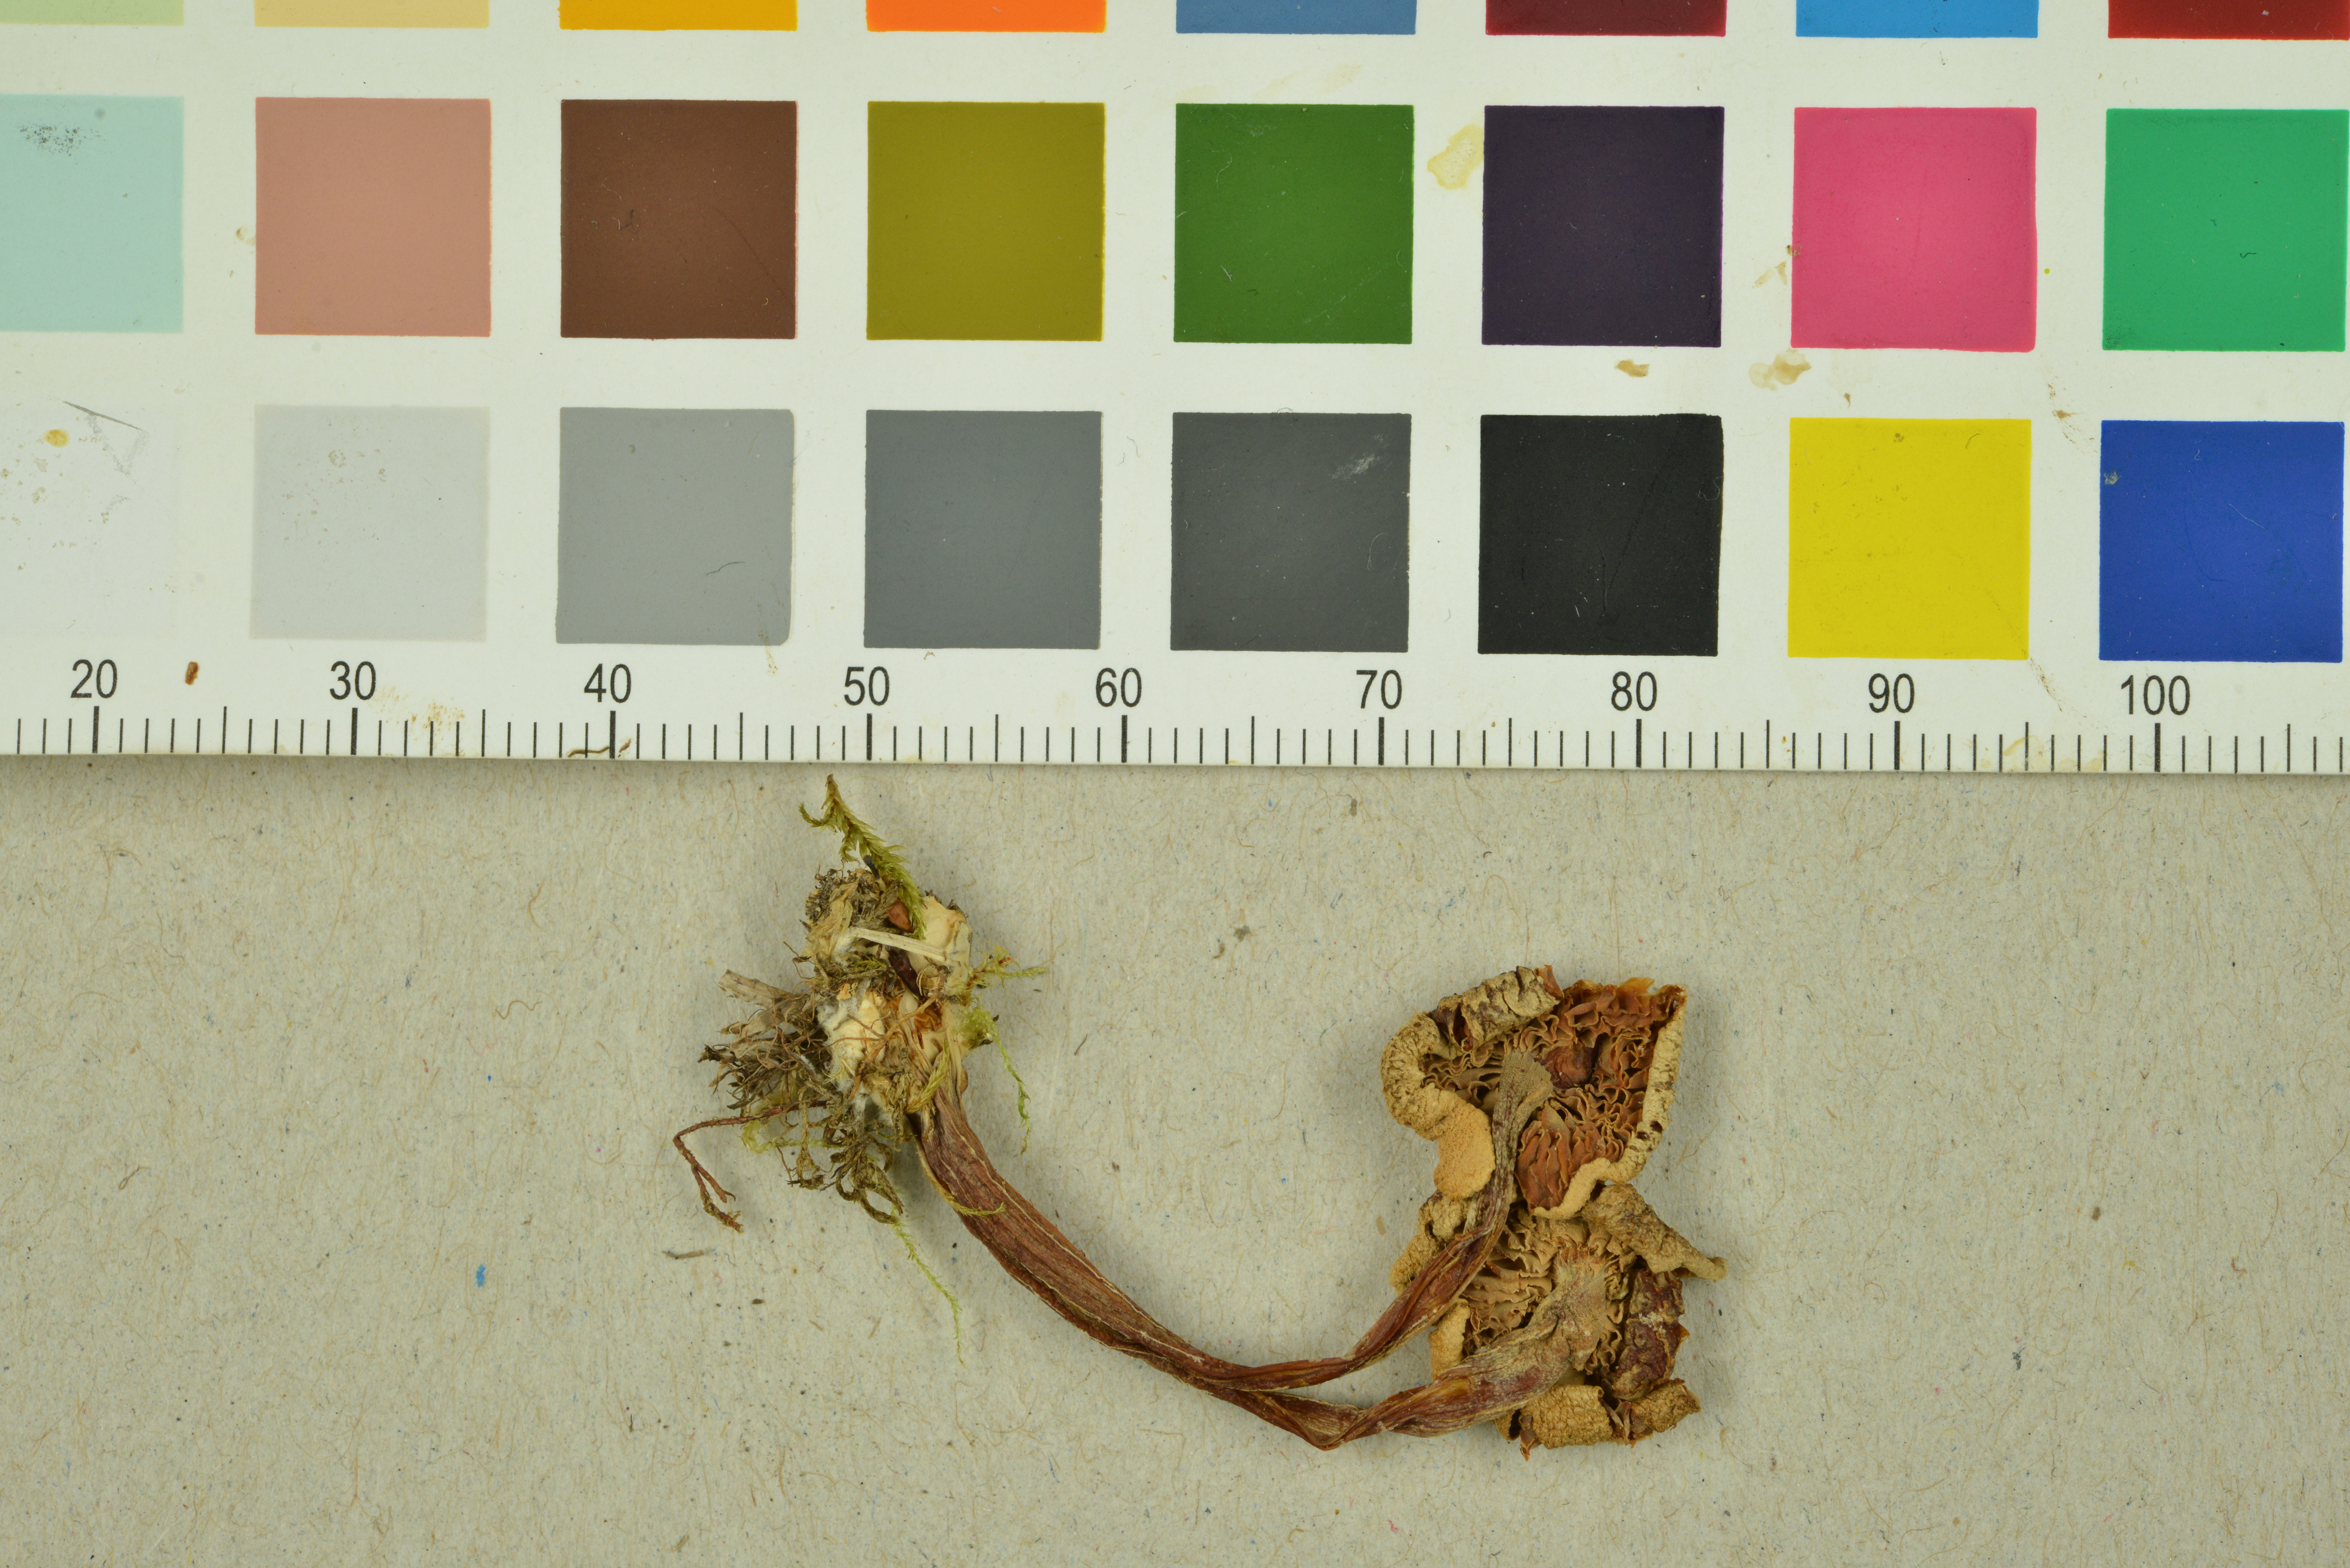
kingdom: Fungi
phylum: Basidiomycota
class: Agaricomycetes
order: Agaricales
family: Entolomataceae
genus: Entoloma
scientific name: Entoloma queletii
